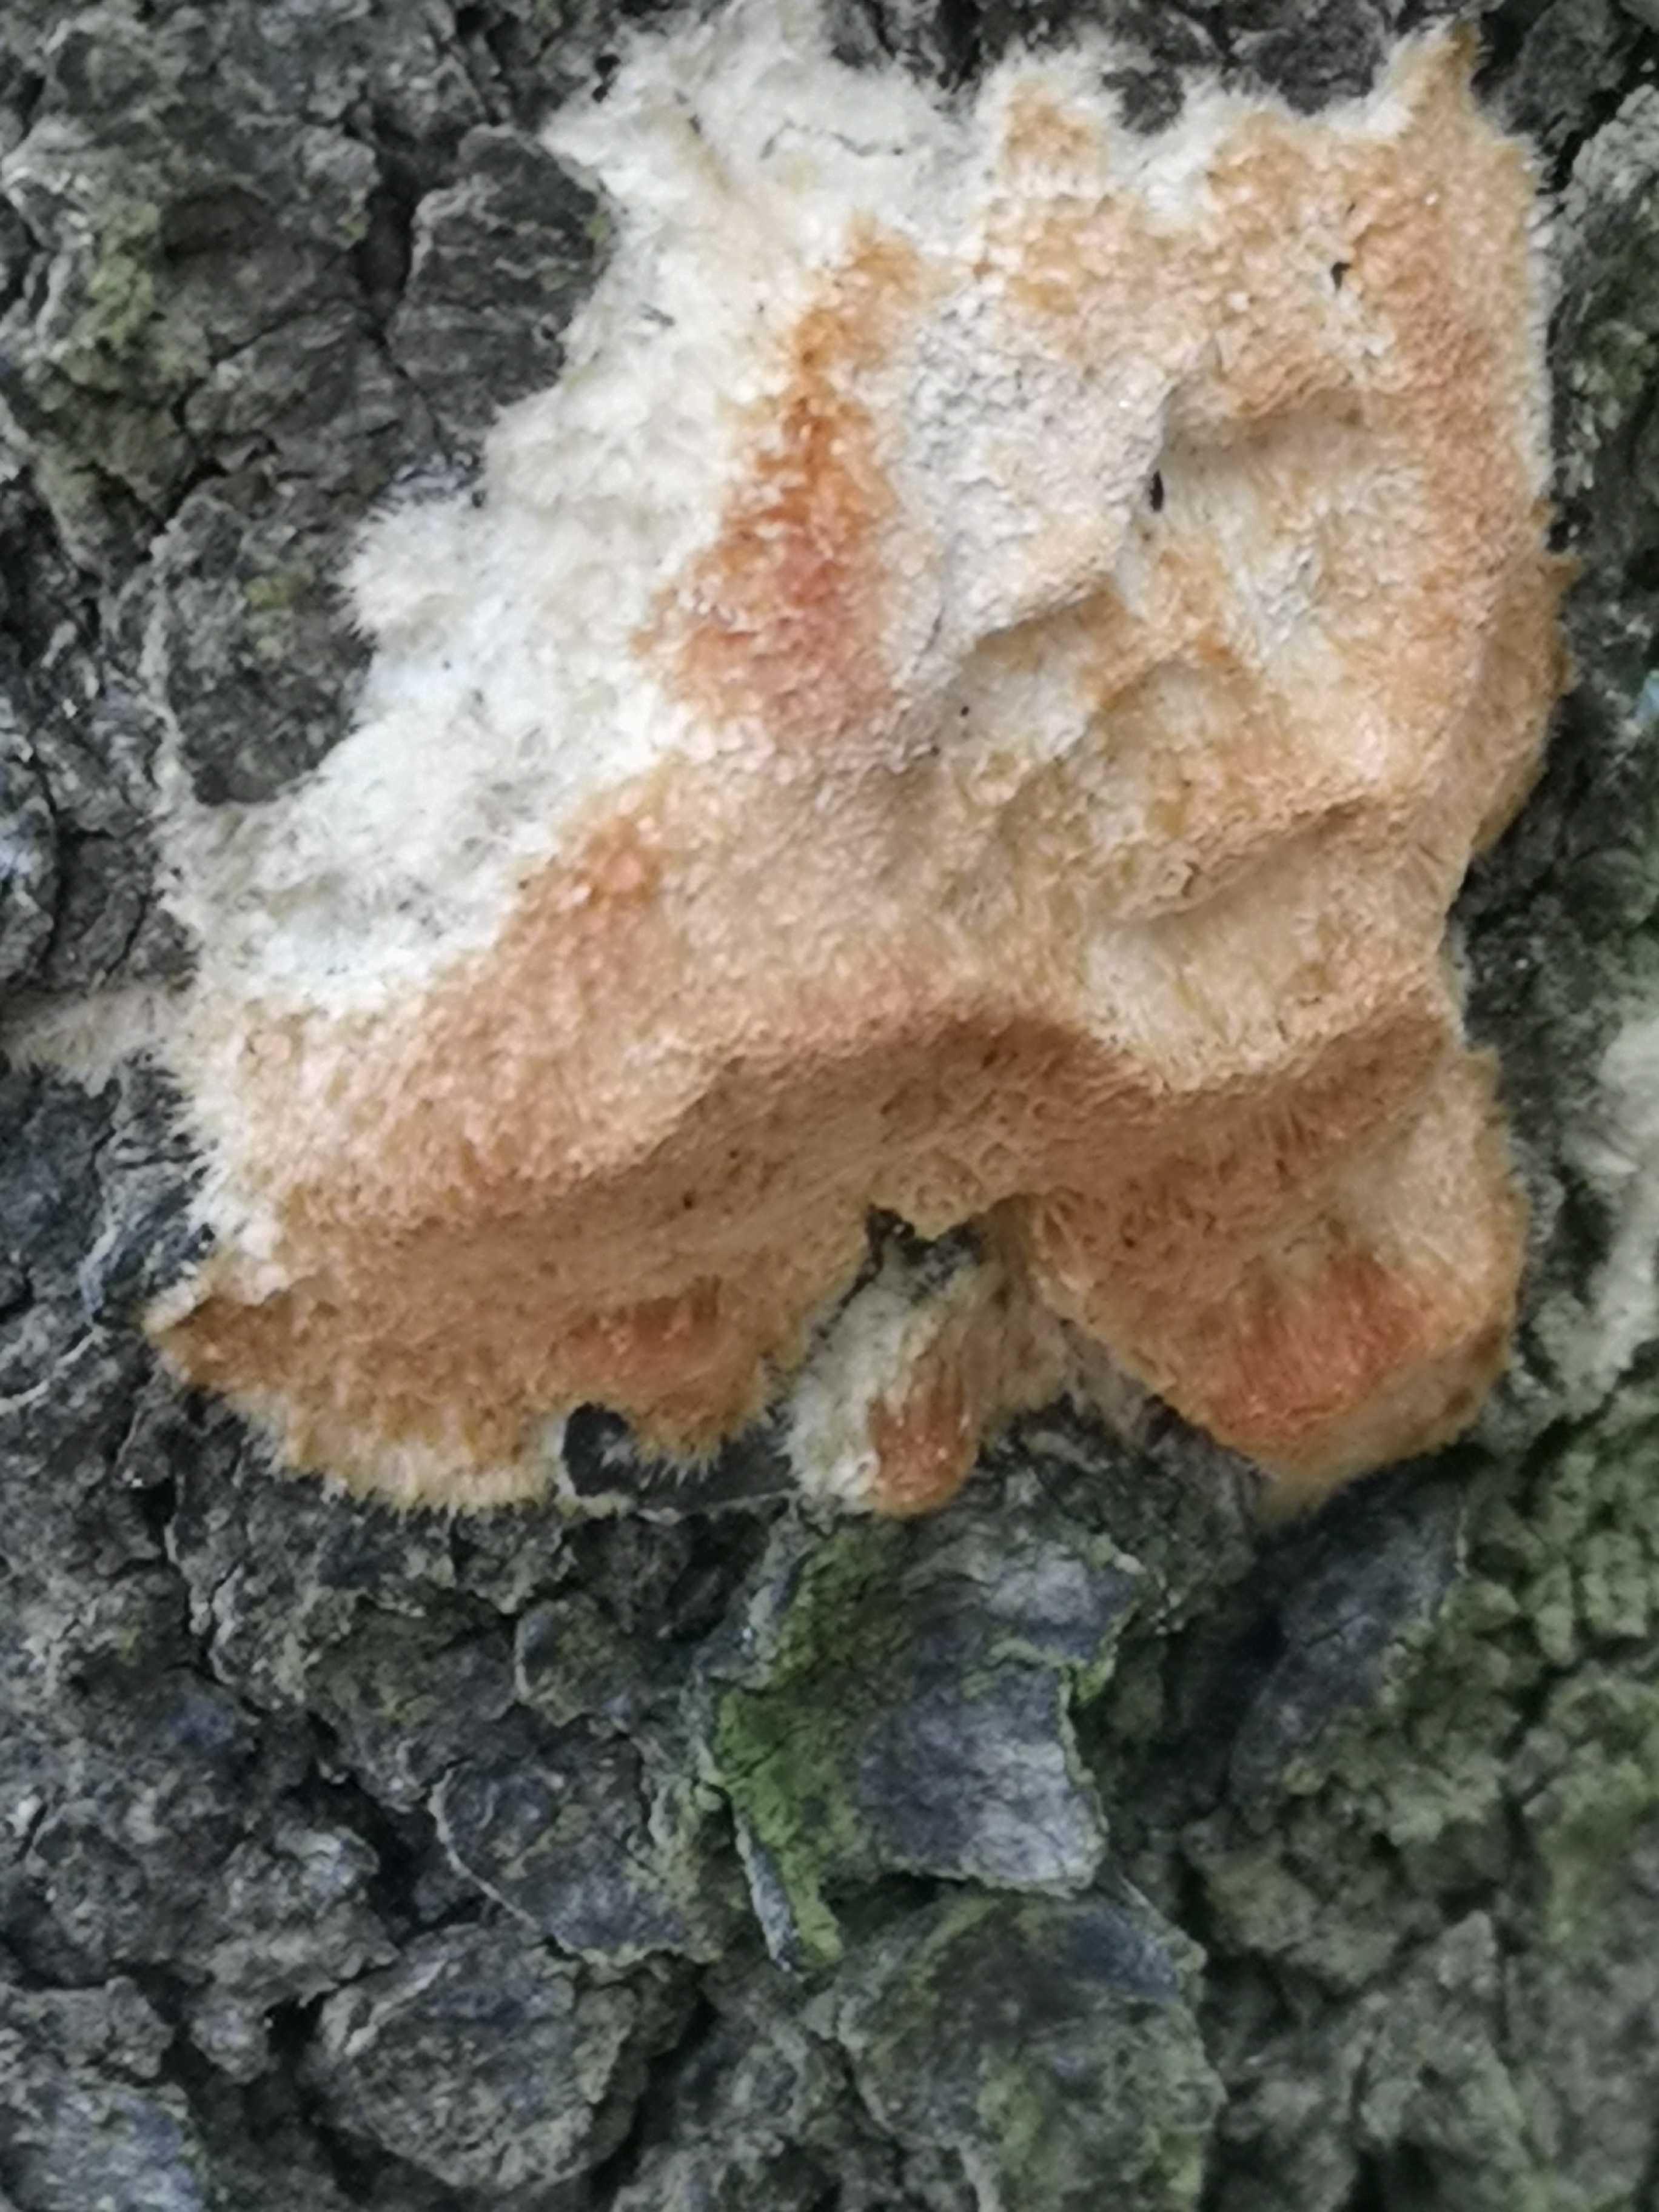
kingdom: Fungi
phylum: Basidiomycota
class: Agaricomycetes
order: Polyporales
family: Polyporaceae
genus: Diplomitoporus
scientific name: Diplomitoporus flavescens
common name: fyrre-elastikporesvamp
